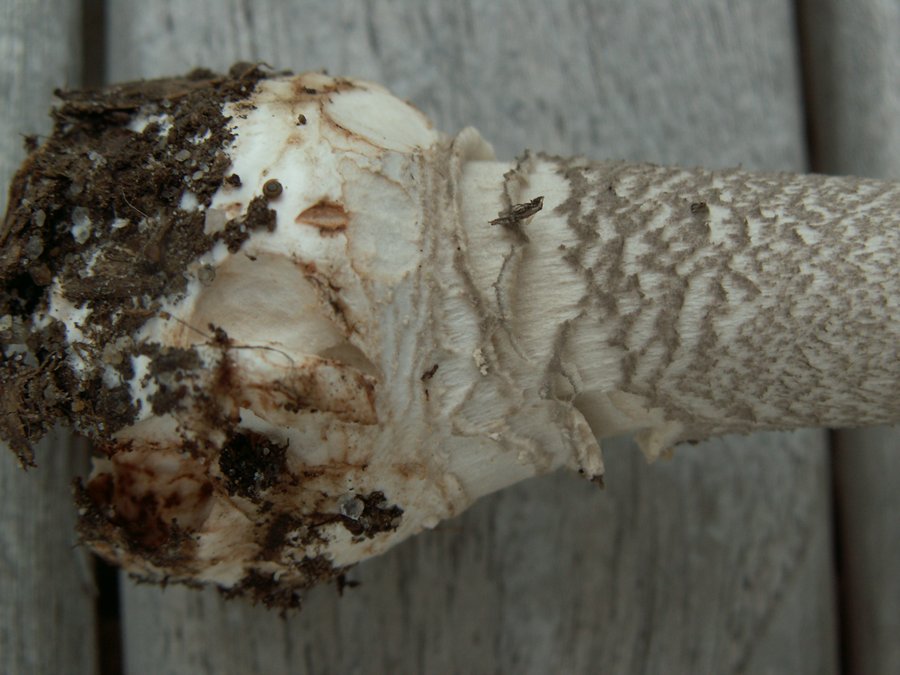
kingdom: Fungi
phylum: Basidiomycota
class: Agaricomycetes
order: Agaricales
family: Amanitaceae
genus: Amanita
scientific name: Amanita
